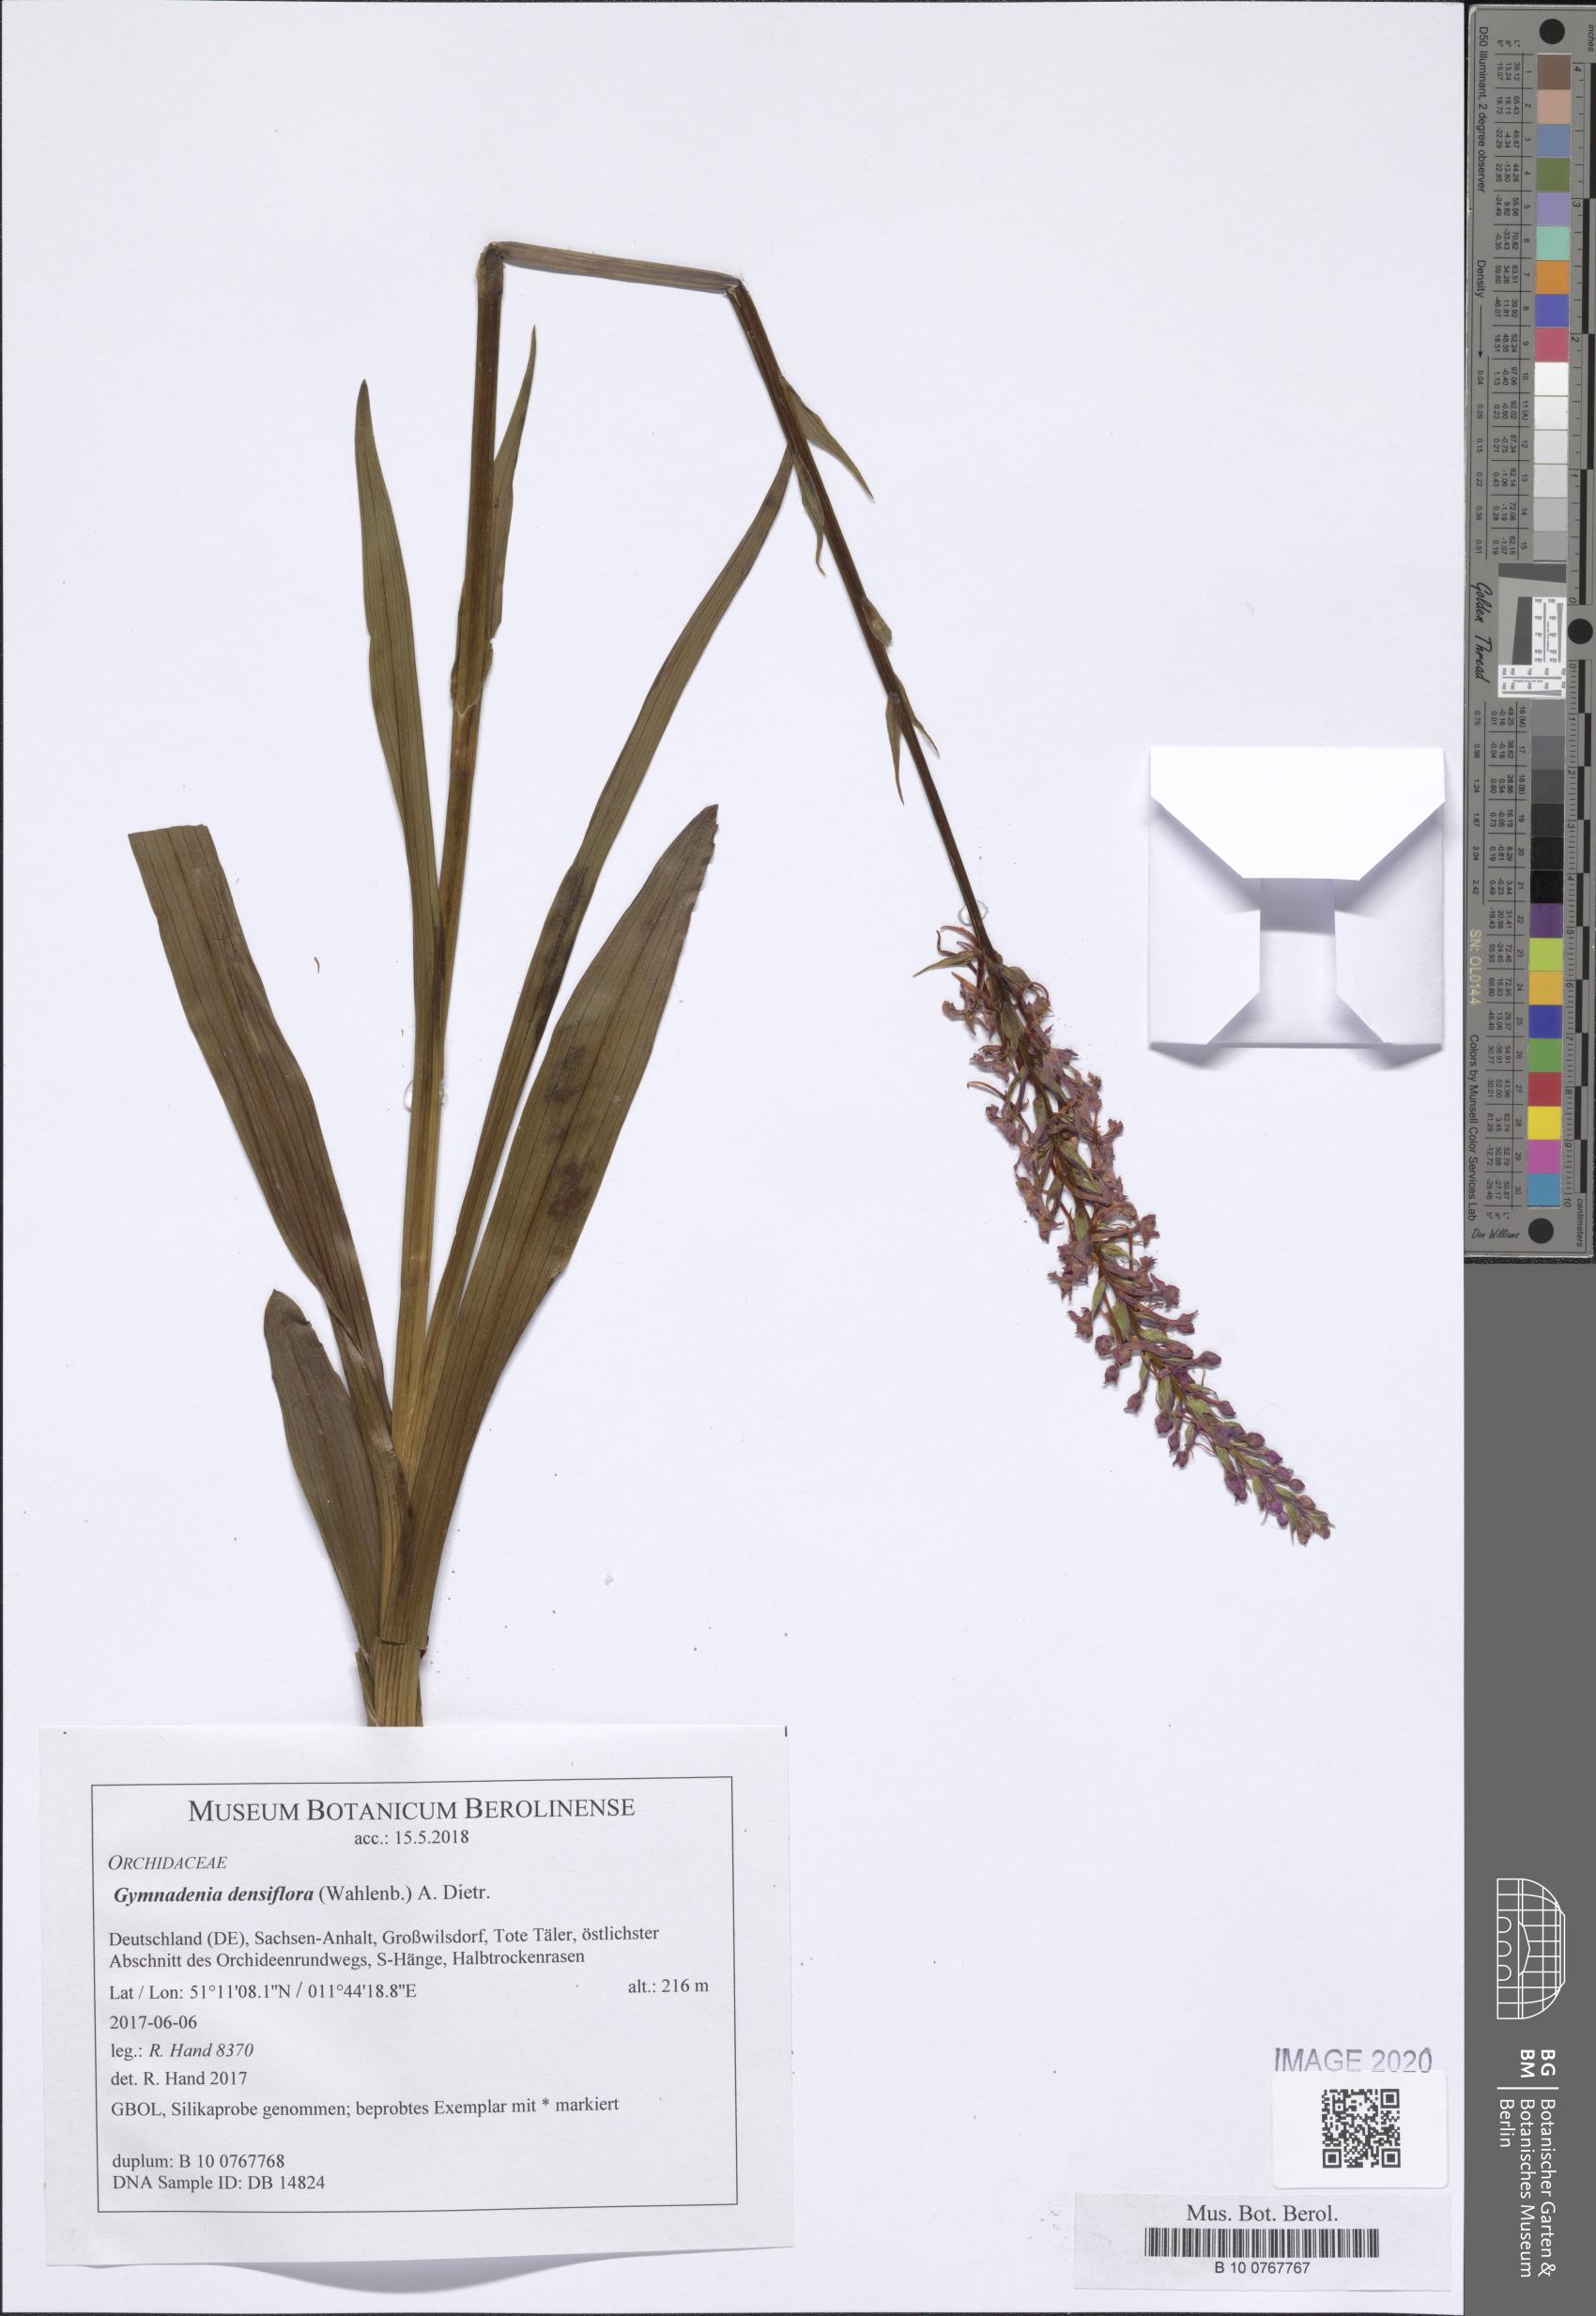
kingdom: Plantae
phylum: Tracheophyta
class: Liliopsida
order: Asparagales
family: Orchidaceae
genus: Gymnadenia
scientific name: Gymnadenia densiflora
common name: Marsh fragrant-orchid
